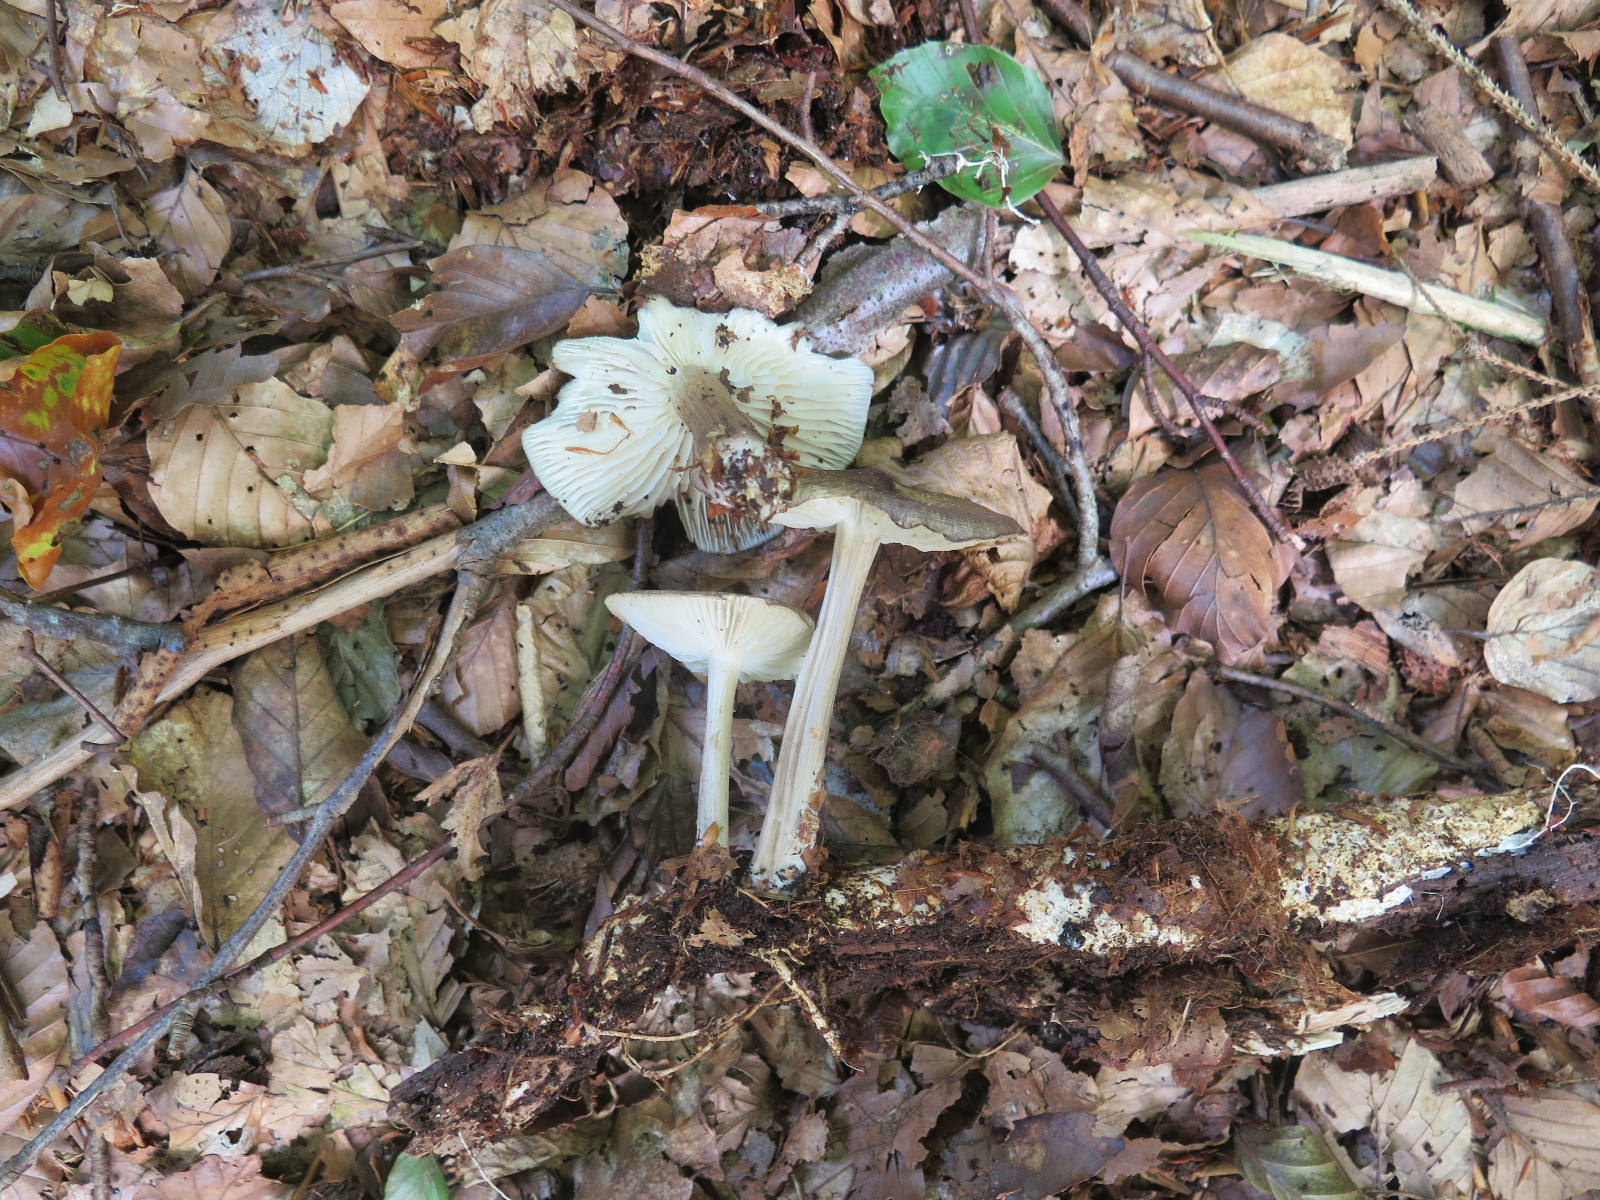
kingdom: Fungi
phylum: Basidiomycota
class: Agaricomycetes
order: Agaricales
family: Tricholomataceae
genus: Megacollybia
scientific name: Megacollybia platyphylla
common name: bredbladet væbnerhat
